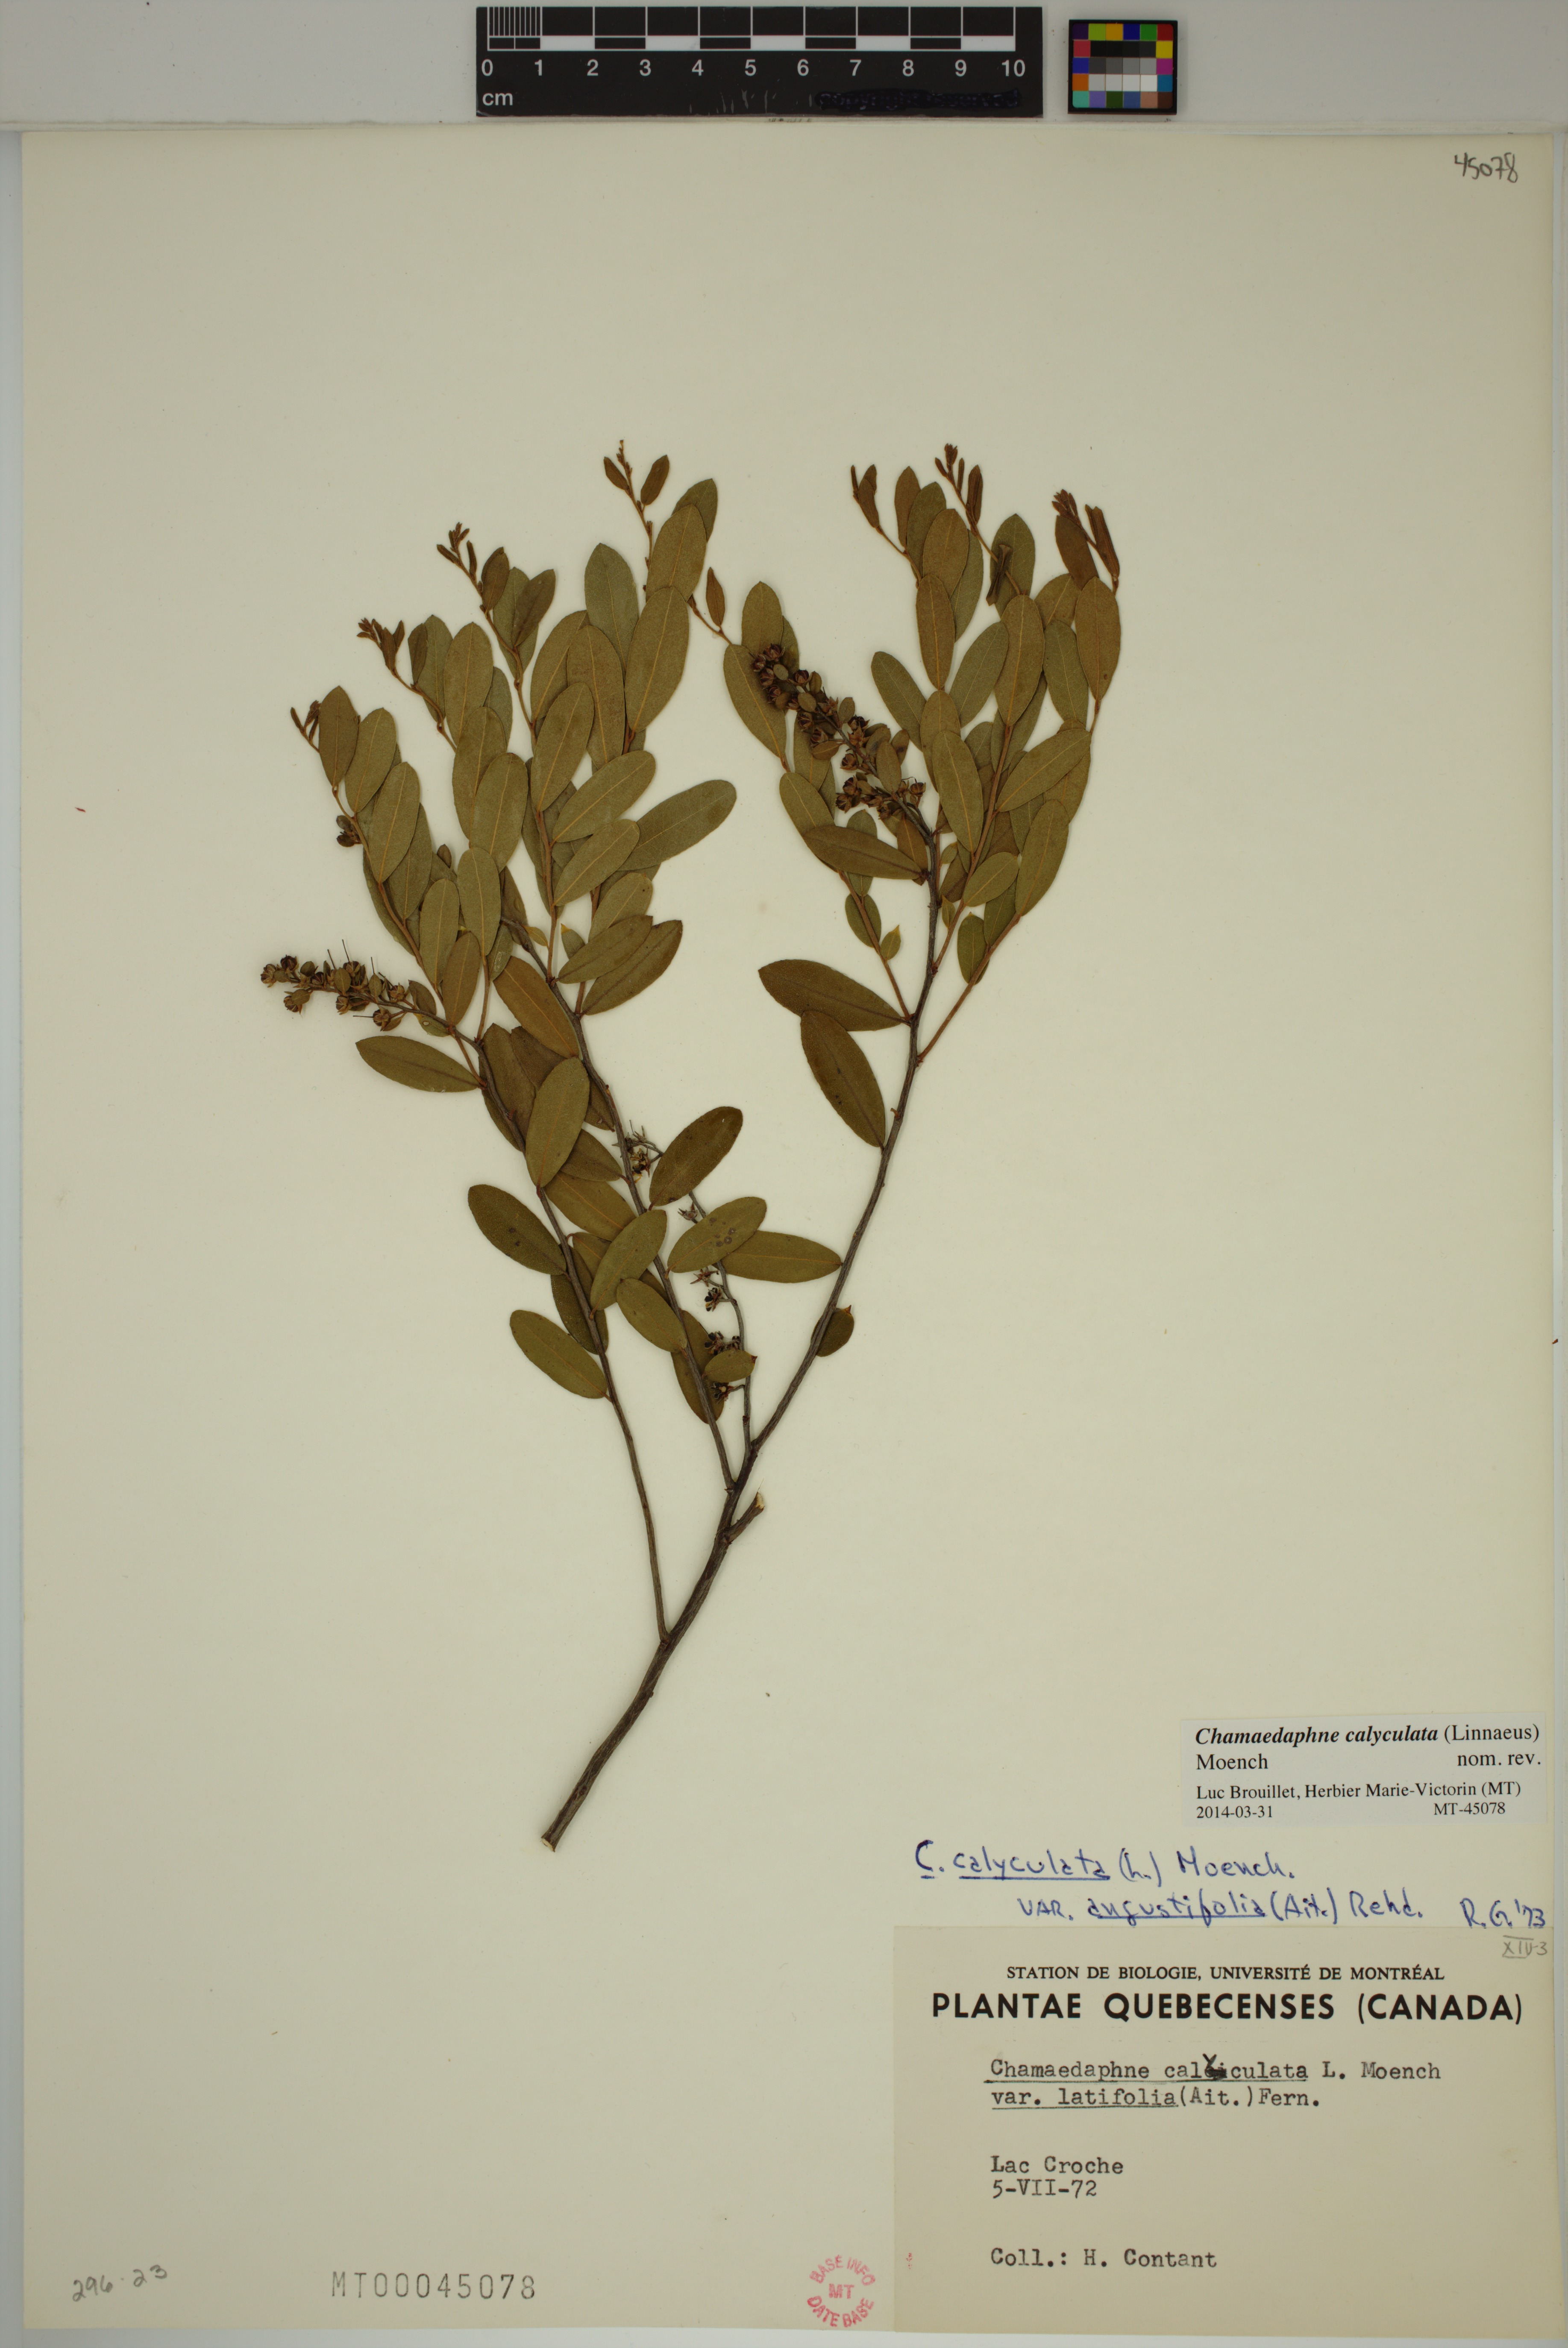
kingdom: Plantae
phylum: Tracheophyta
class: Magnoliopsida
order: Ericales
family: Ericaceae
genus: Chamaedaphne
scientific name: Chamaedaphne calyculata
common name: Leatherleaf
